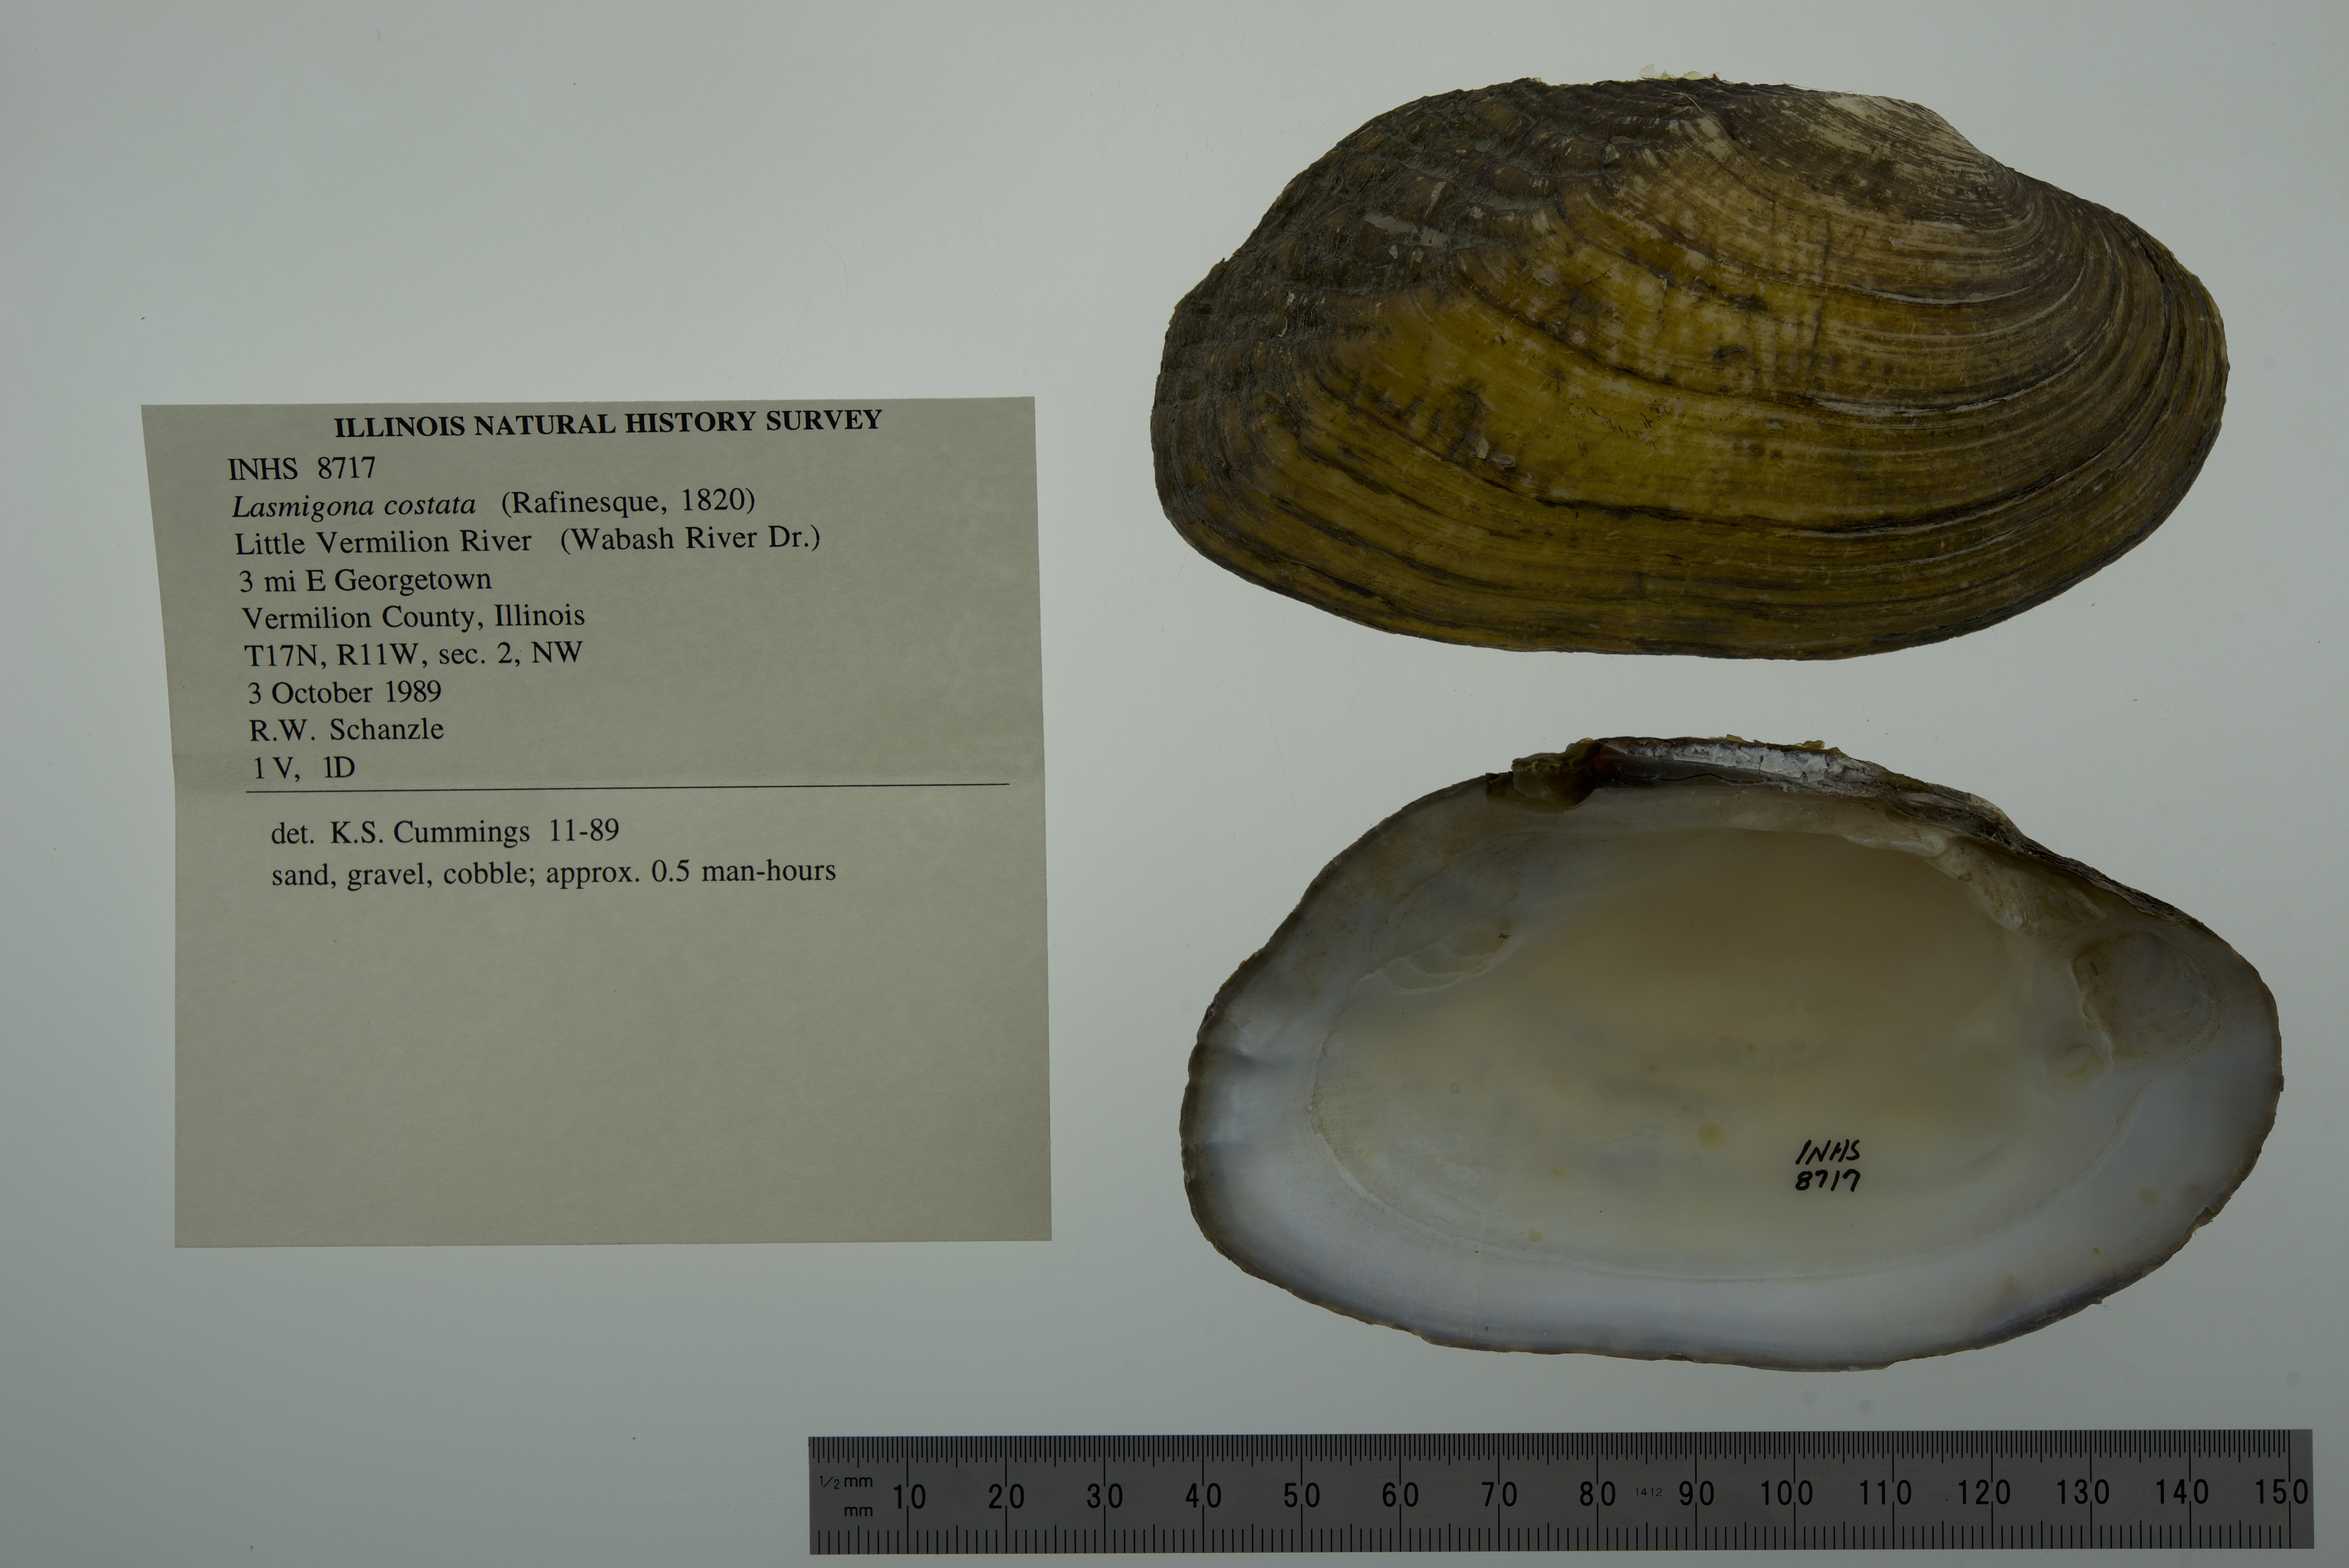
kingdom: Animalia
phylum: Mollusca
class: Bivalvia
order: Unionida
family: Unionidae
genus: Lasmigona
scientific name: Lasmigona costata
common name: Flutedshell
